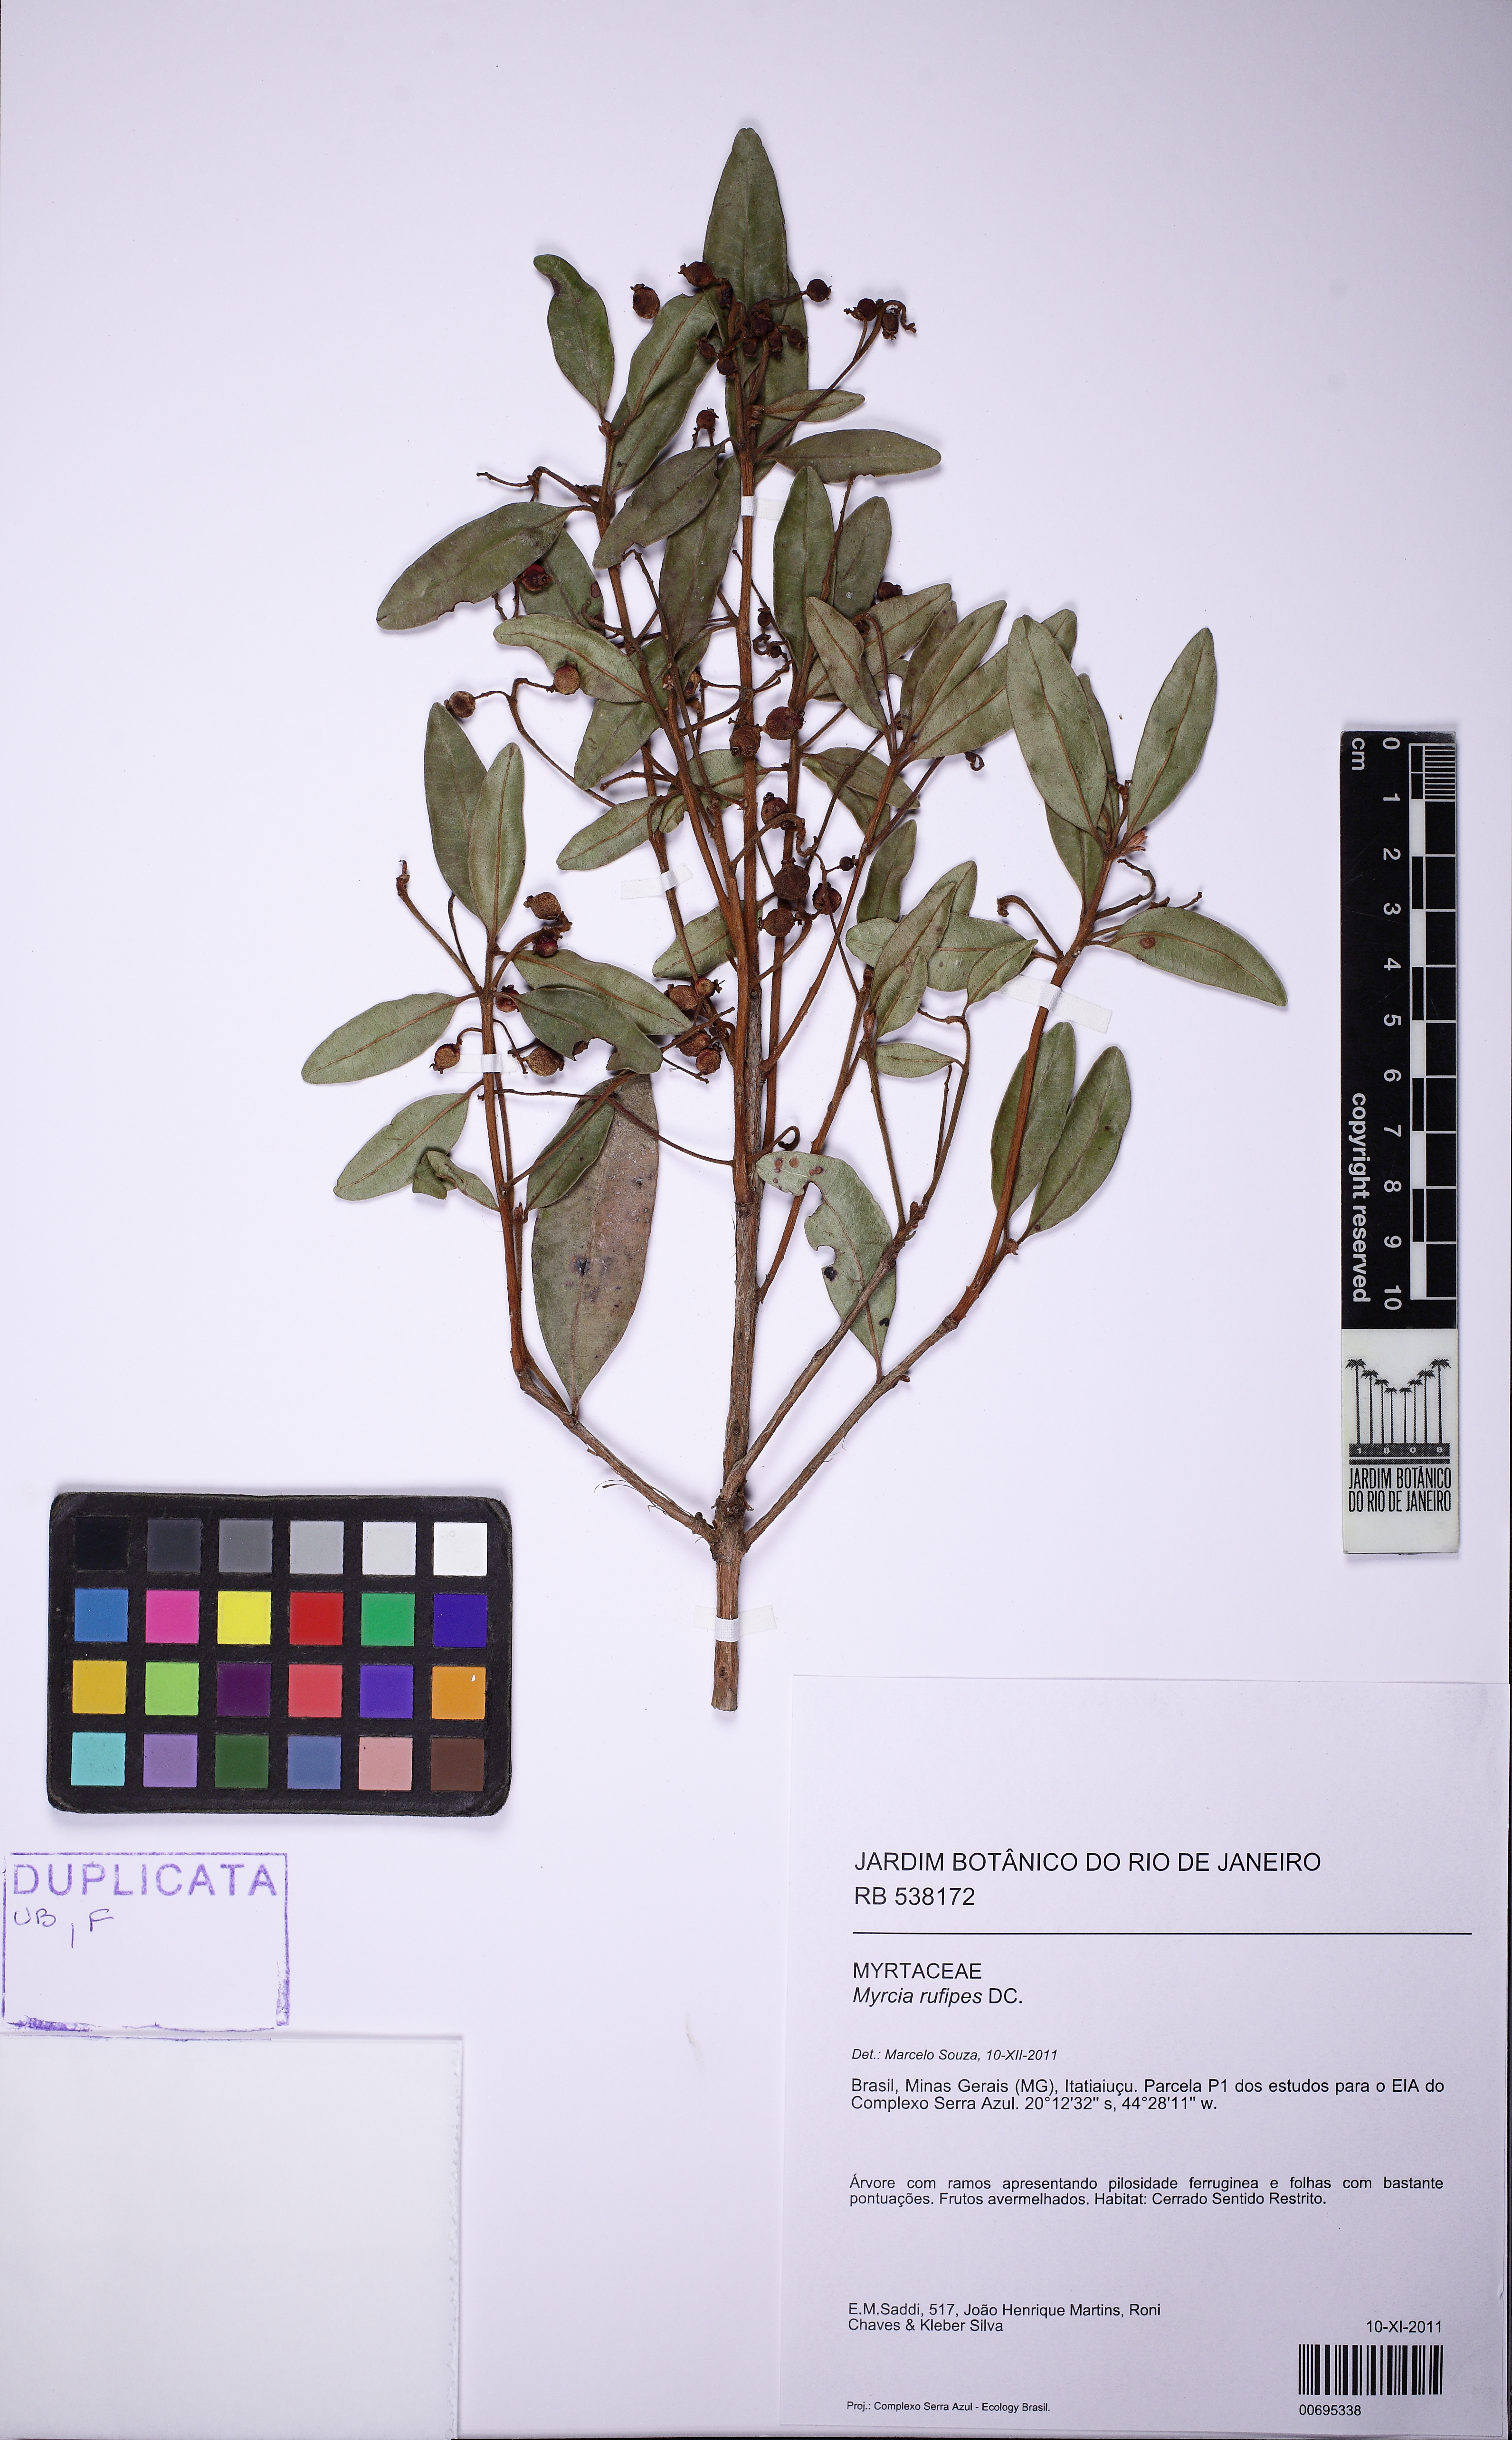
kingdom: Plantae
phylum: Tracheophyta
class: Magnoliopsida
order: Myrtales
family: Myrtaceae
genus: Myrcia
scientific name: Myrcia rufipes
